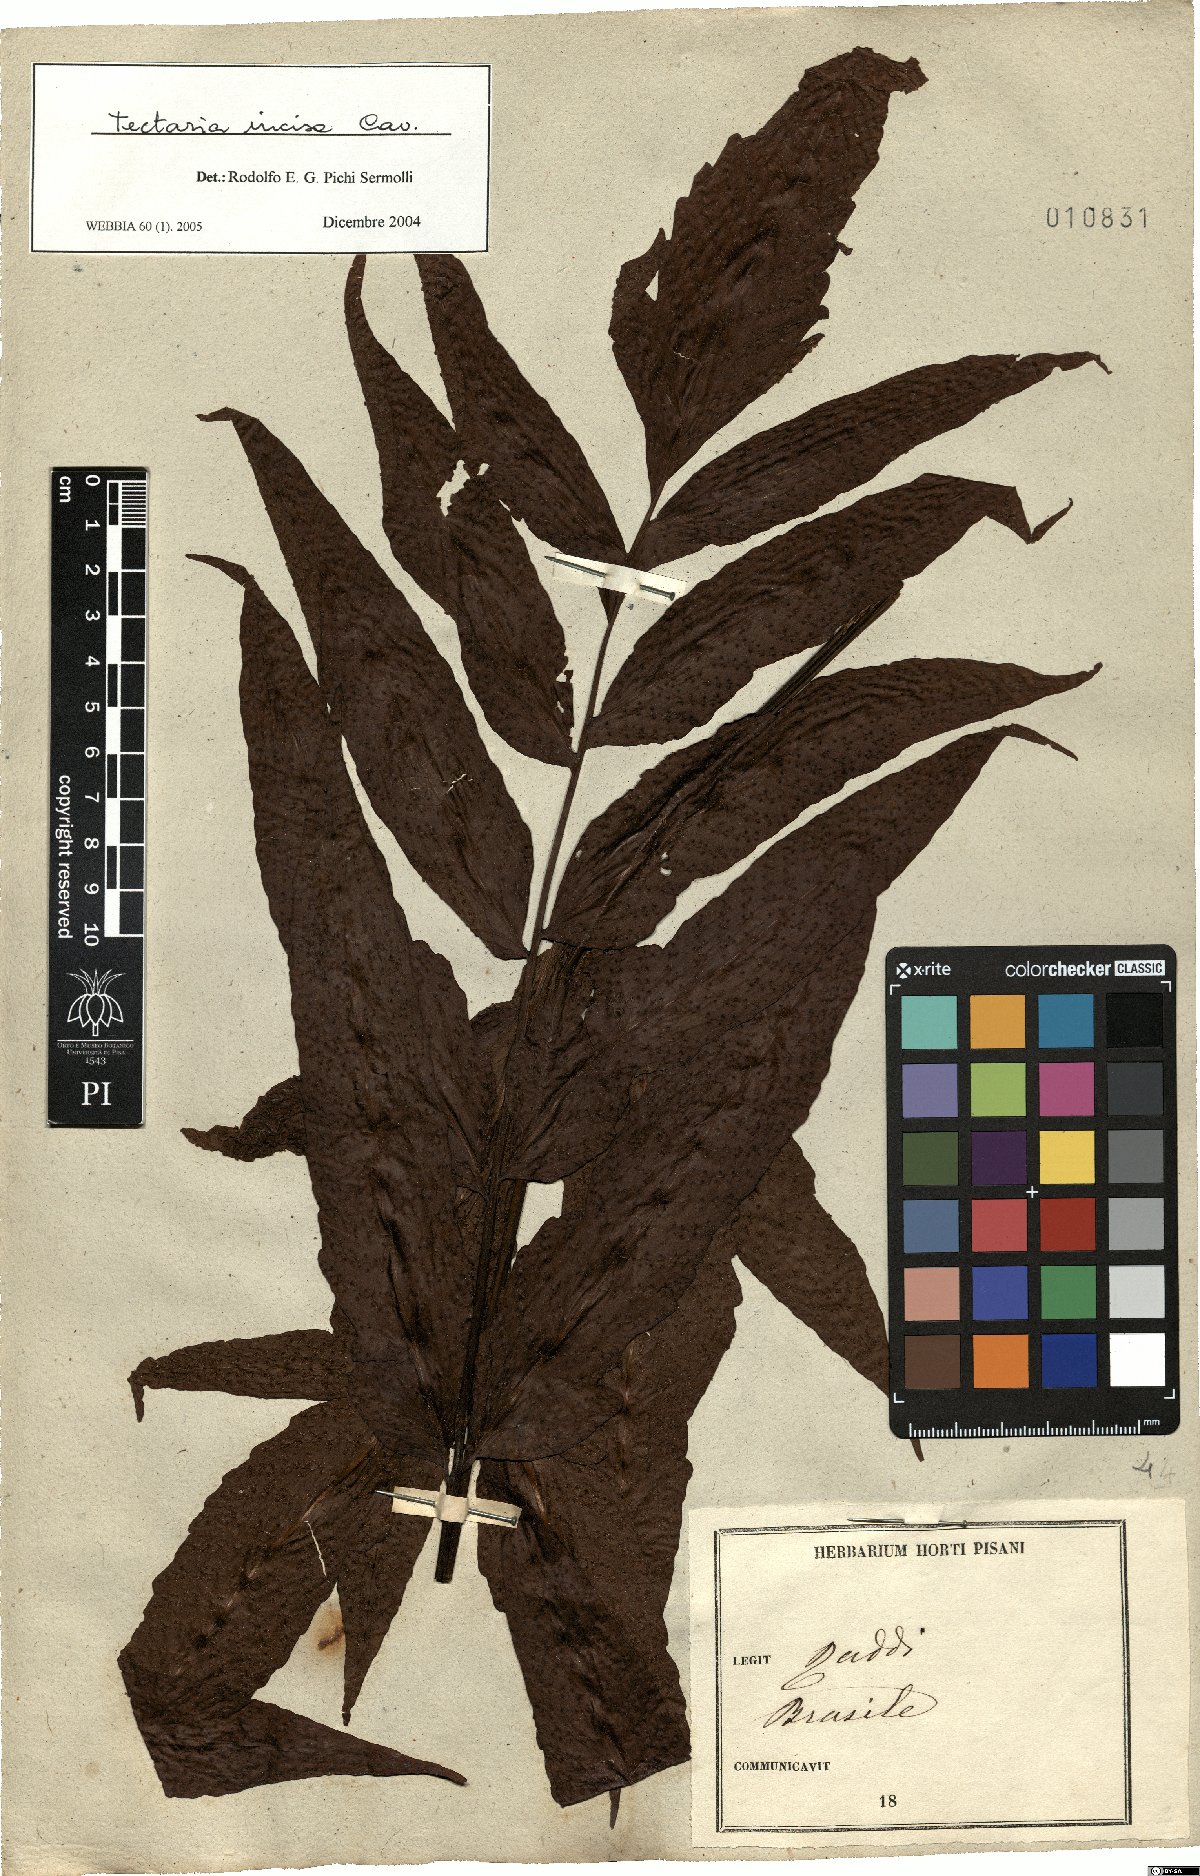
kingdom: Plantae
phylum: Tracheophyta
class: Polypodiopsida
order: Polypodiales
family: Tectariaceae
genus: Tectaria
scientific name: Tectaria incisa
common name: Incised halberd fern
